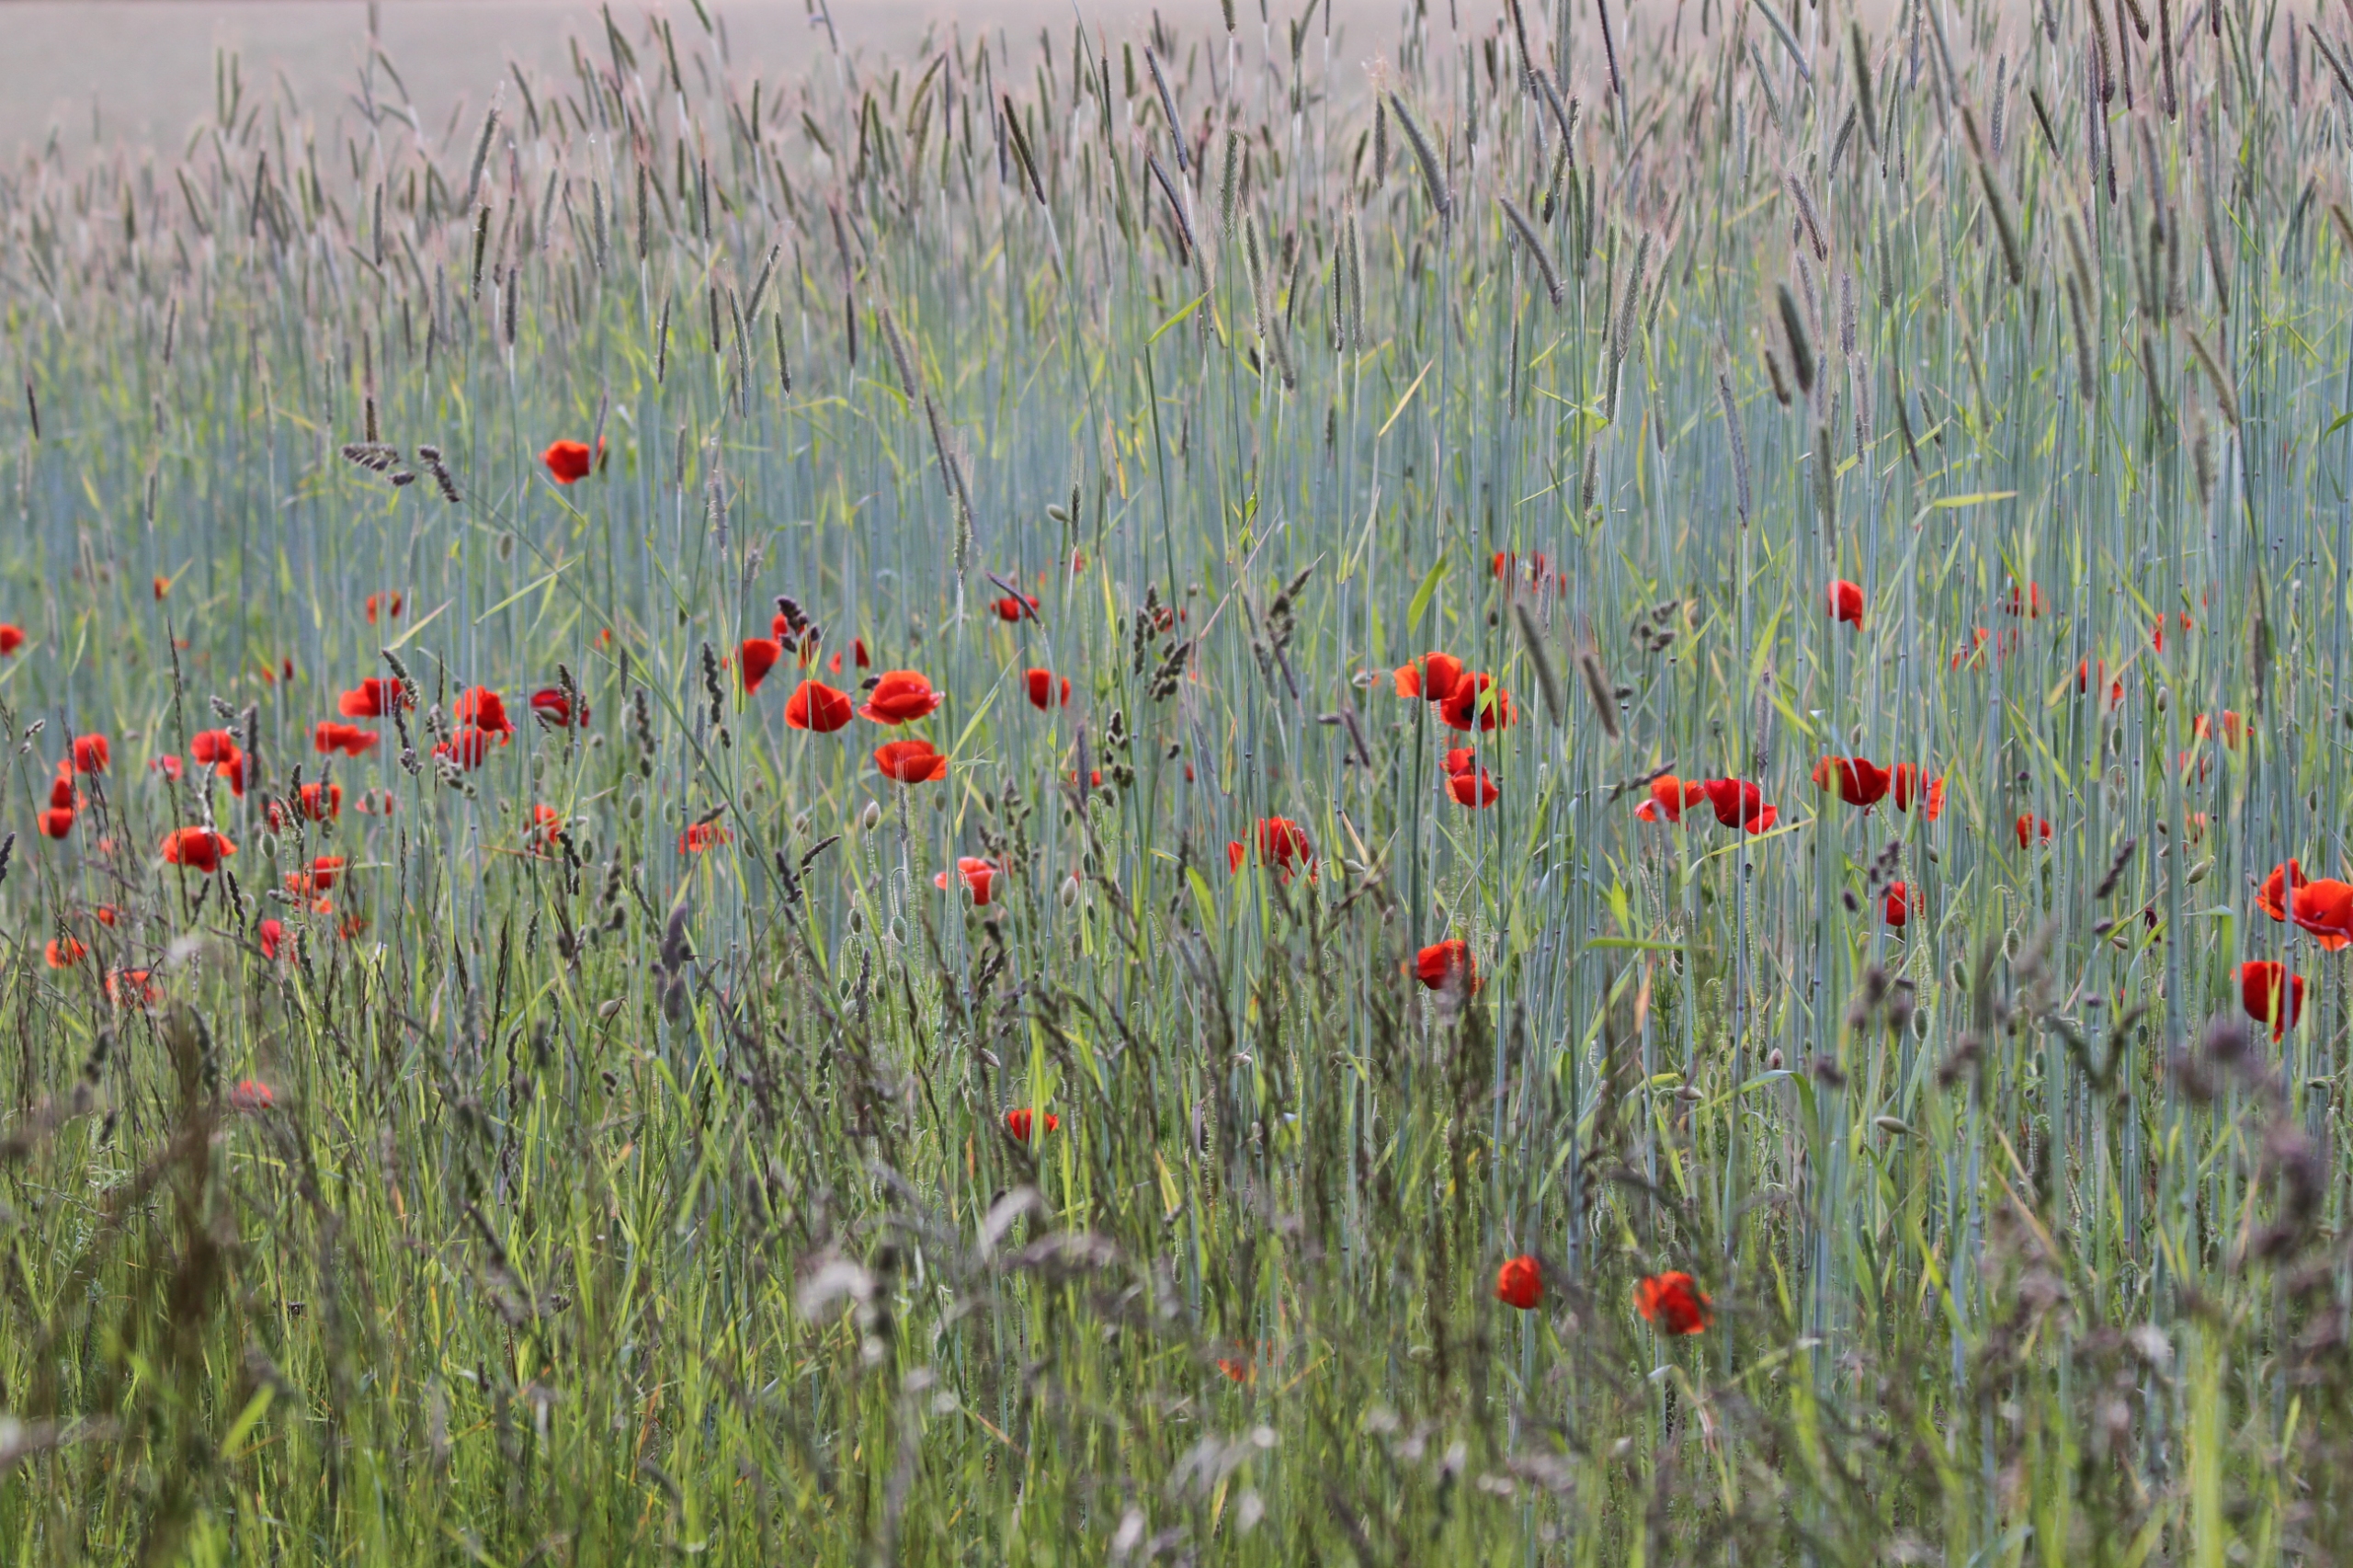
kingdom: Plantae
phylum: Tracheophyta
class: Magnoliopsida
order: Ranunculales
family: Papaveraceae
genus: Papaver
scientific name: Papaver rhoeas
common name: Korn-valmue
